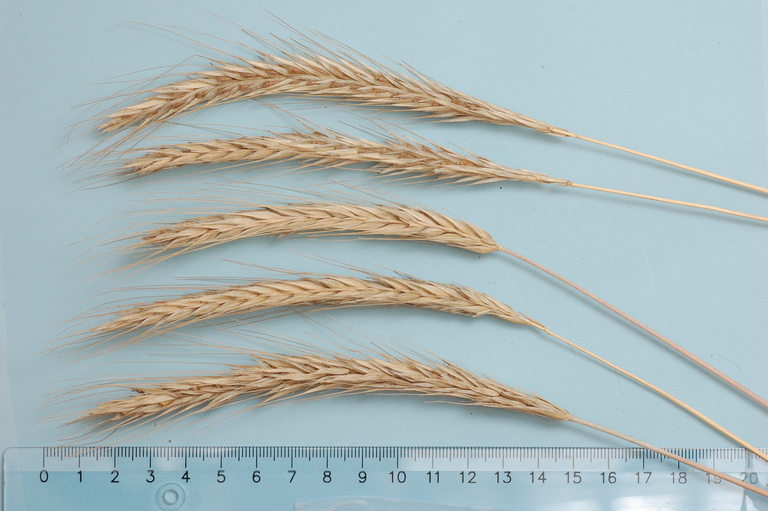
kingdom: Plantae
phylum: Tracheophyta
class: Liliopsida
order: Poales
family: Poaceae
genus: Secale
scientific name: Secale cereale
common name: Rye
